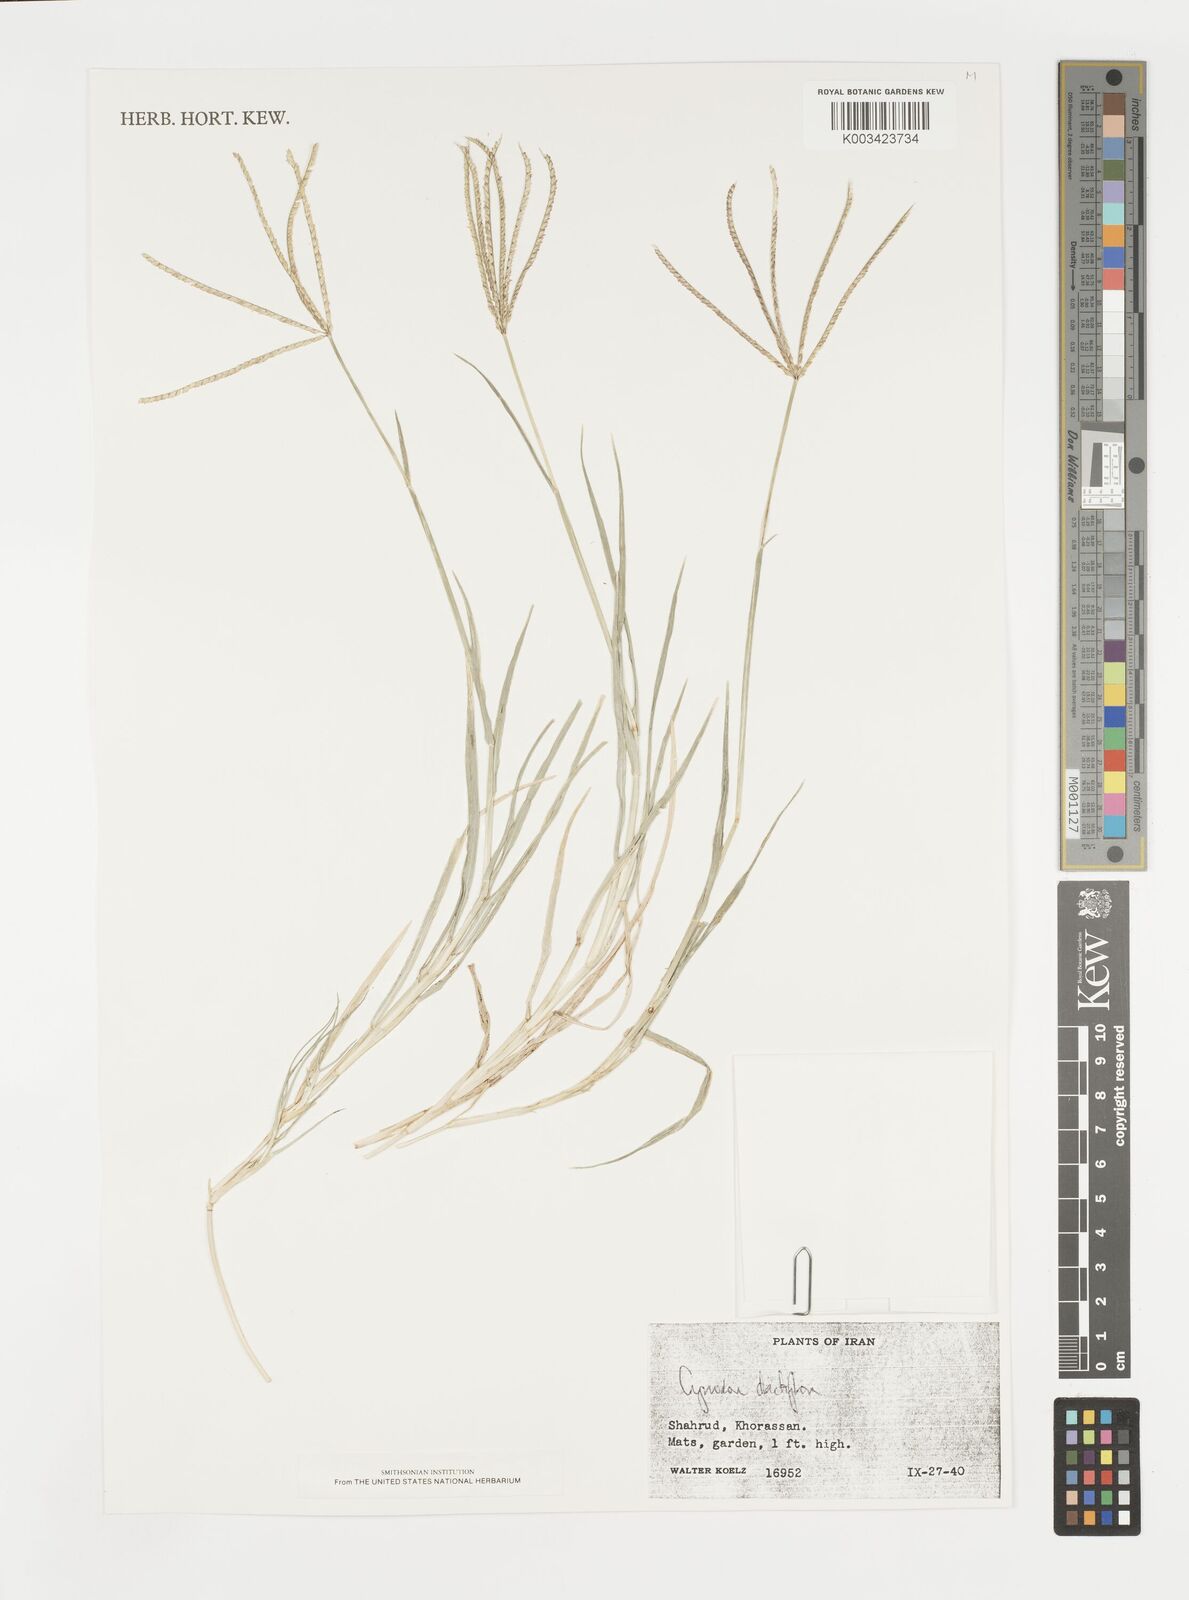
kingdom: Plantae
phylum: Tracheophyta
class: Liliopsida
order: Poales
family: Poaceae
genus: Cynodon
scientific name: Cynodon dactylon
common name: Bermuda grass
